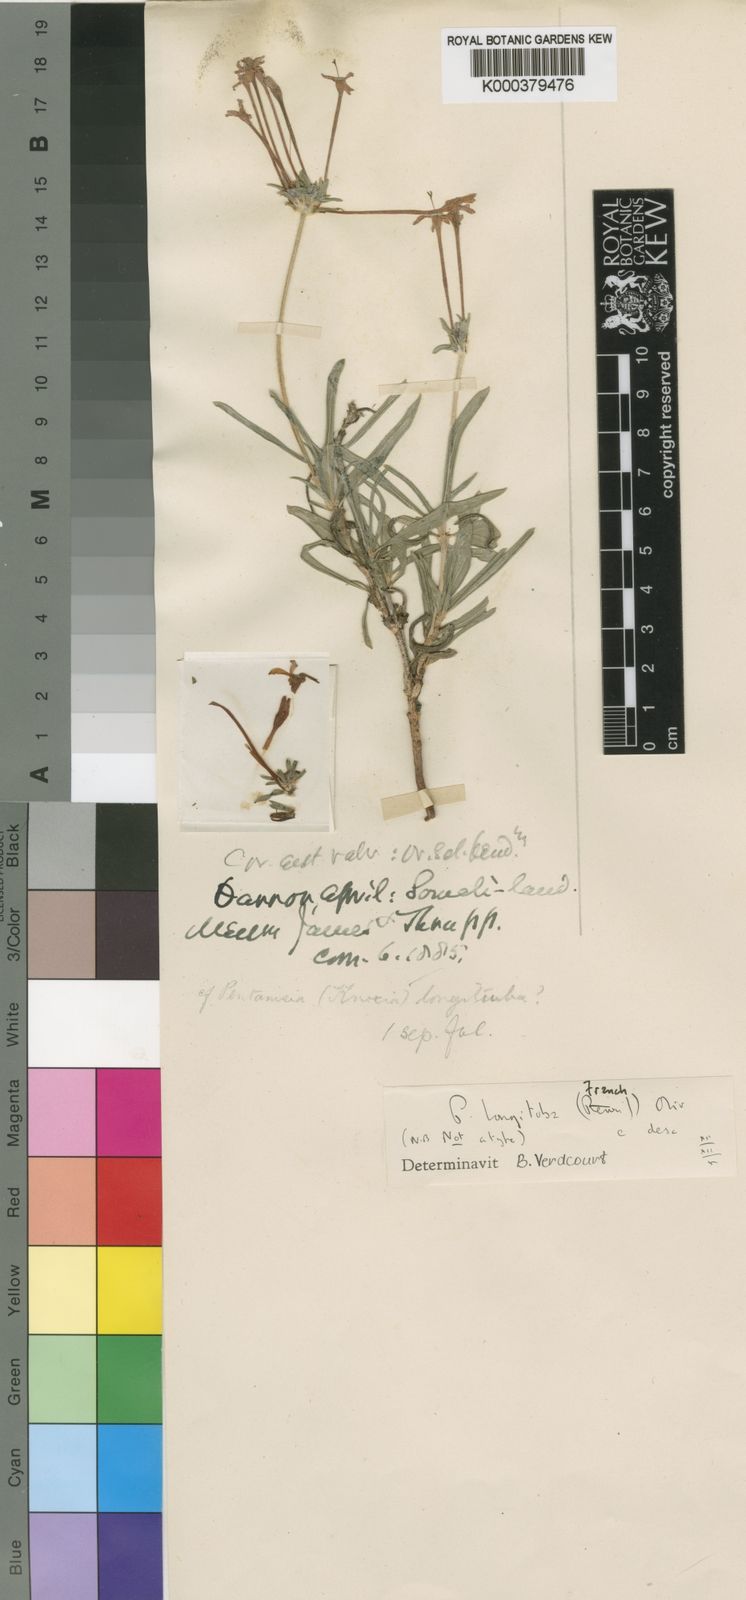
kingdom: Plantae
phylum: Tracheophyta
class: Magnoliopsida
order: Gentianales
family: Rubiaceae
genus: Pentanisia
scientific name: Pentanisia longituba
